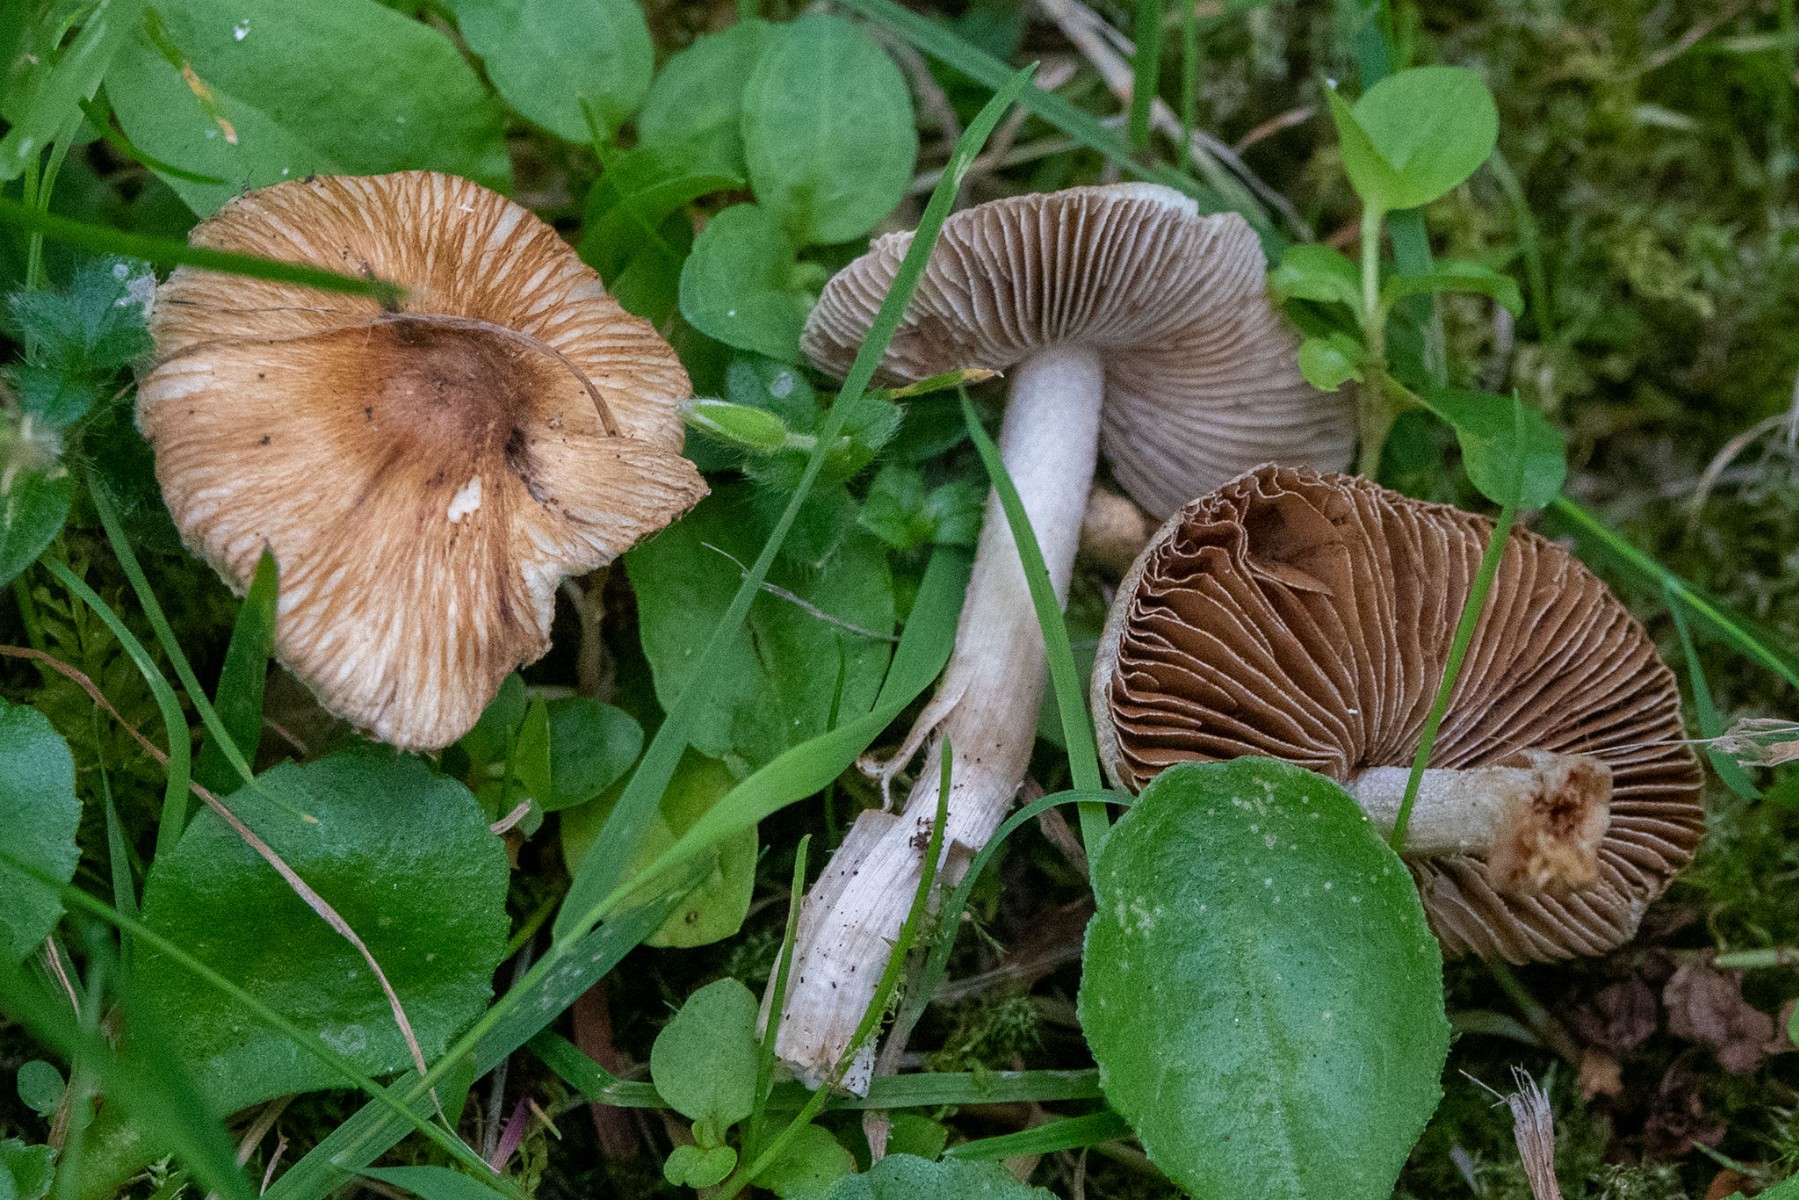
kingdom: Fungi
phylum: Basidiomycota
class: Agaricomycetes
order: Agaricales
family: Inocybaceae
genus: Pseudosperma
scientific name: Pseudosperma
